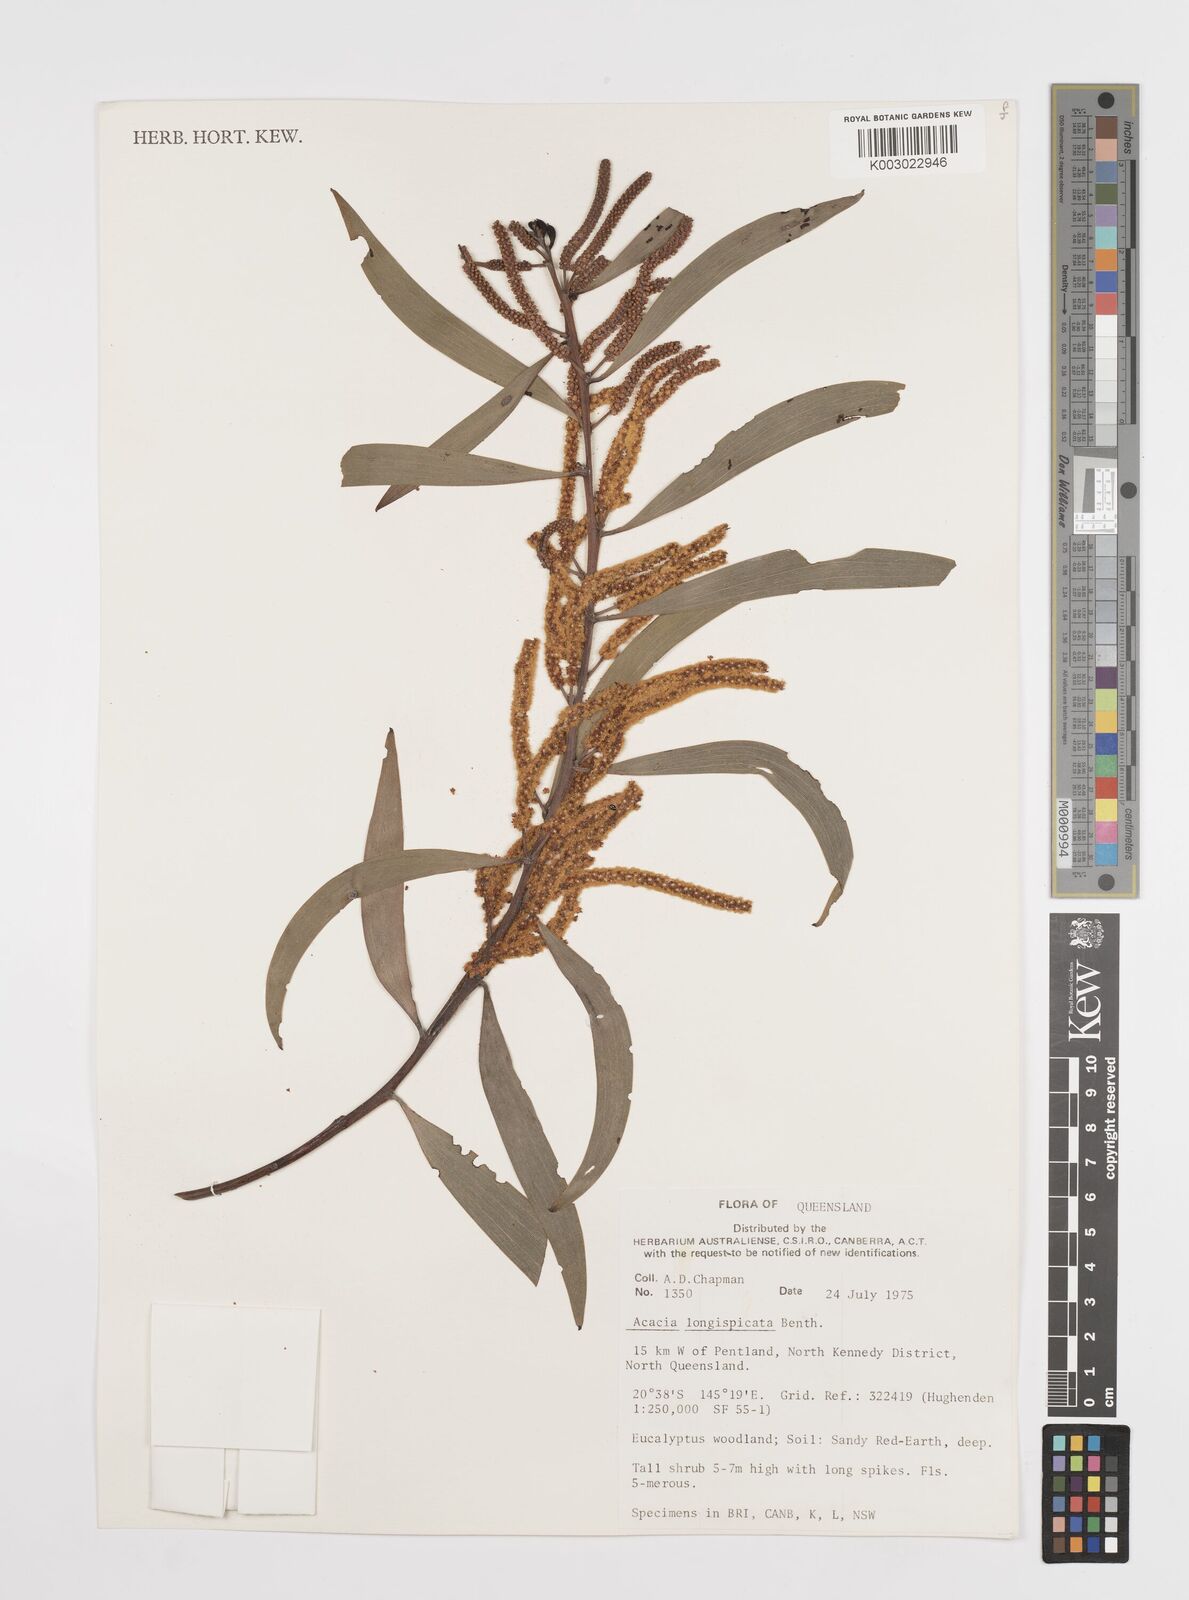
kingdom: Plantae
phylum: Tracheophyta
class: Magnoliopsida
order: Fabales
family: Fabaceae
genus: Acacia
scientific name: Acacia longispicata
